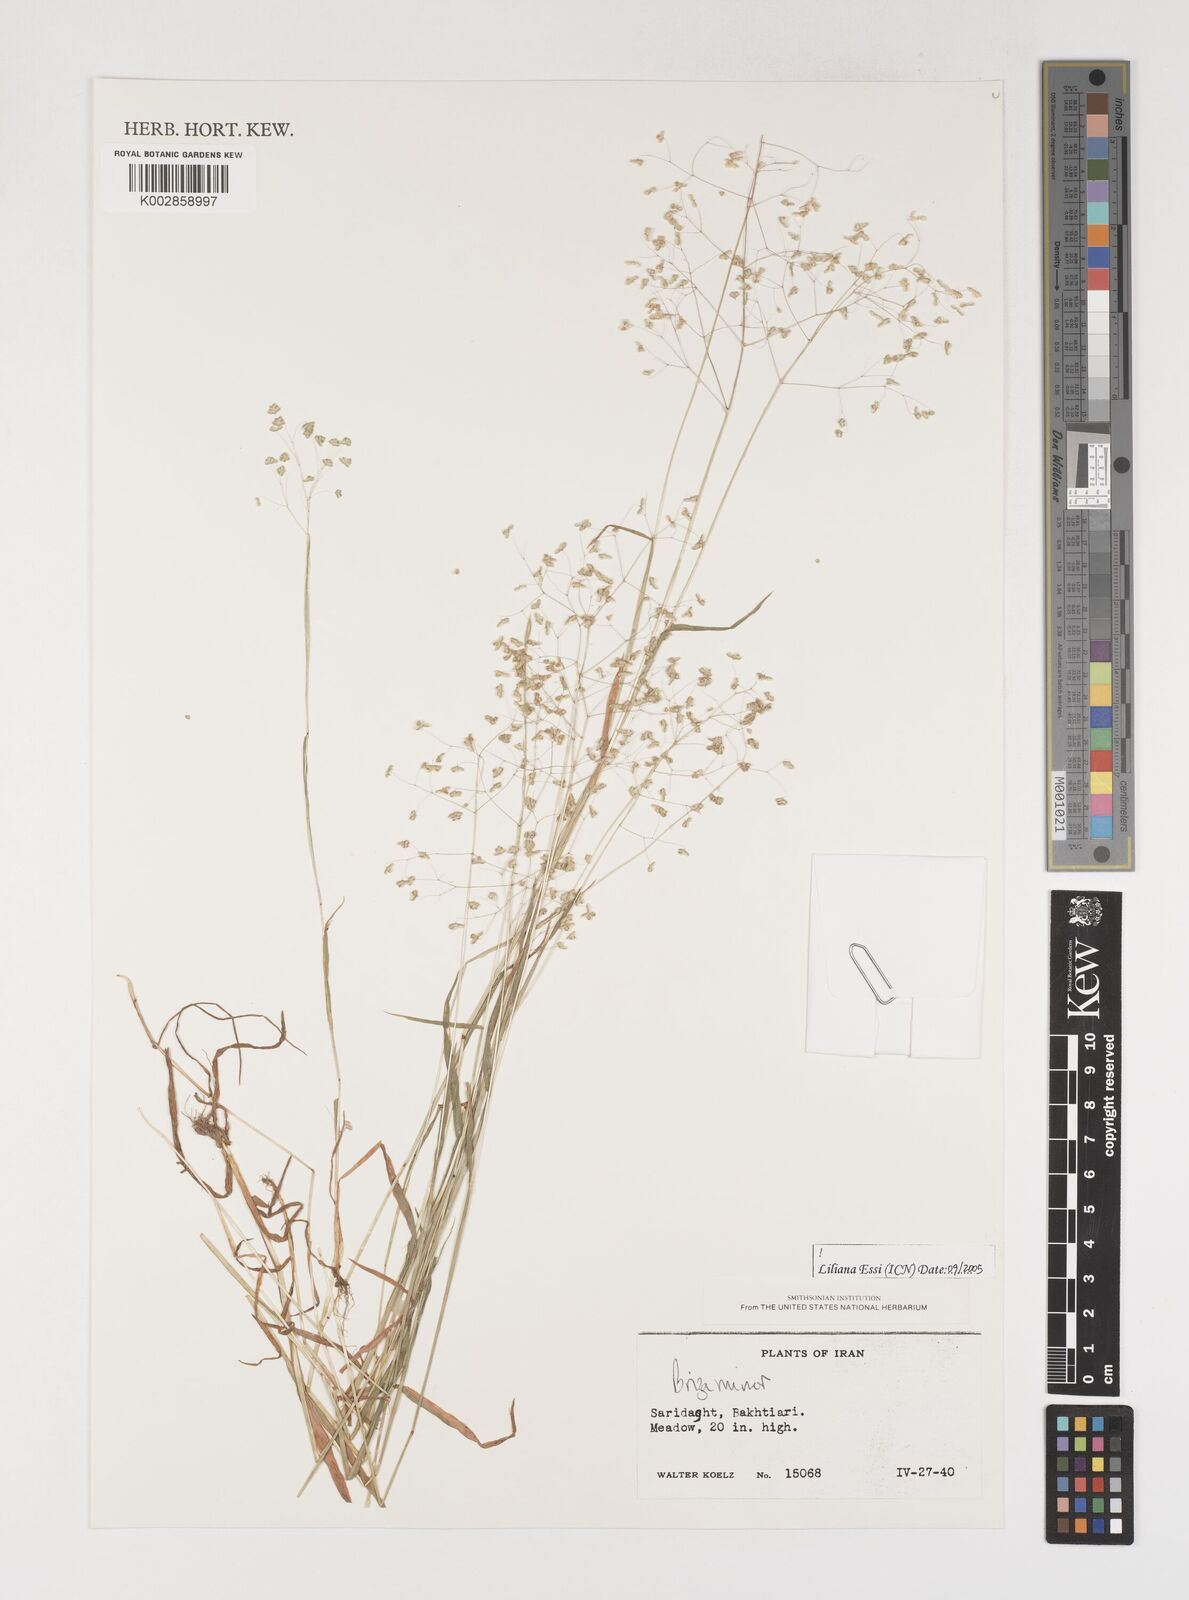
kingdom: Plantae
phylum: Tracheophyta
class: Liliopsida
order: Poales
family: Poaceae
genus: Briza
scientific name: Briza minor
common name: Lesser quaking-grass
